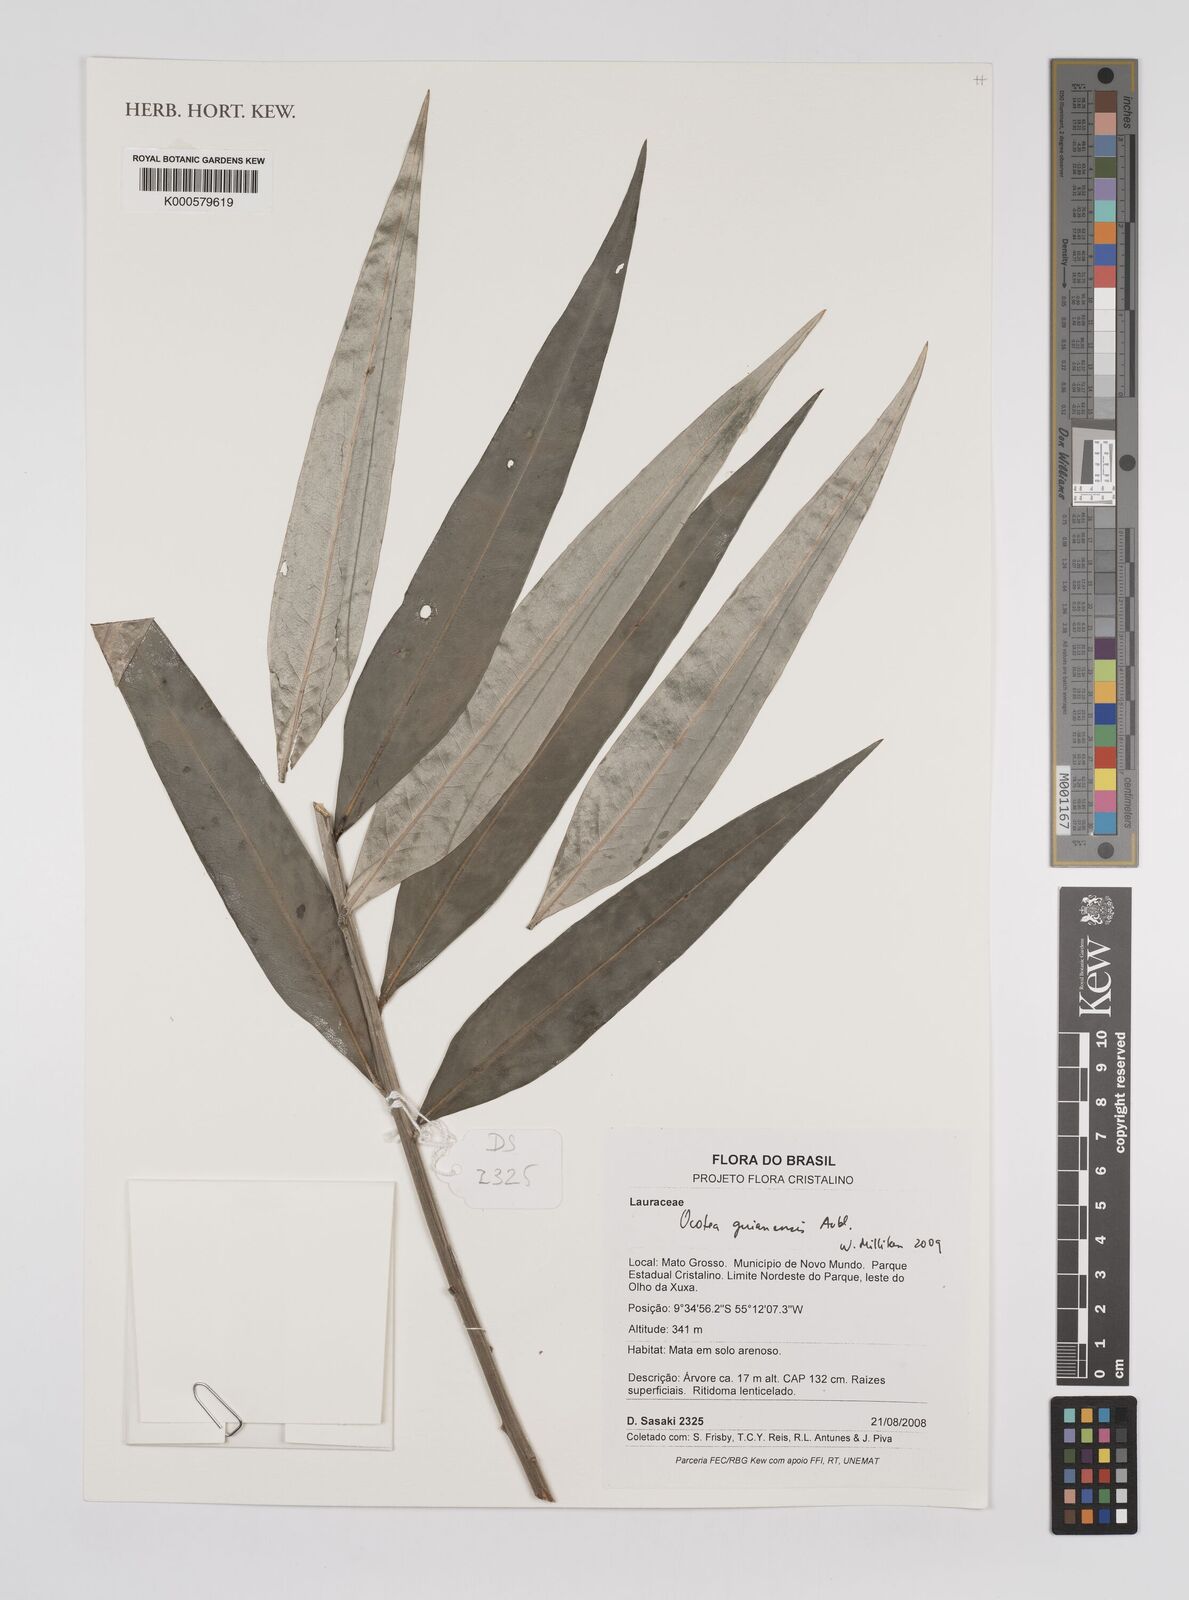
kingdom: Plantae
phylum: Tracheophyta
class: Magnoliopsida
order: Laurales
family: Lauraceae
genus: Ocotea
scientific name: Ocotea guianensis
